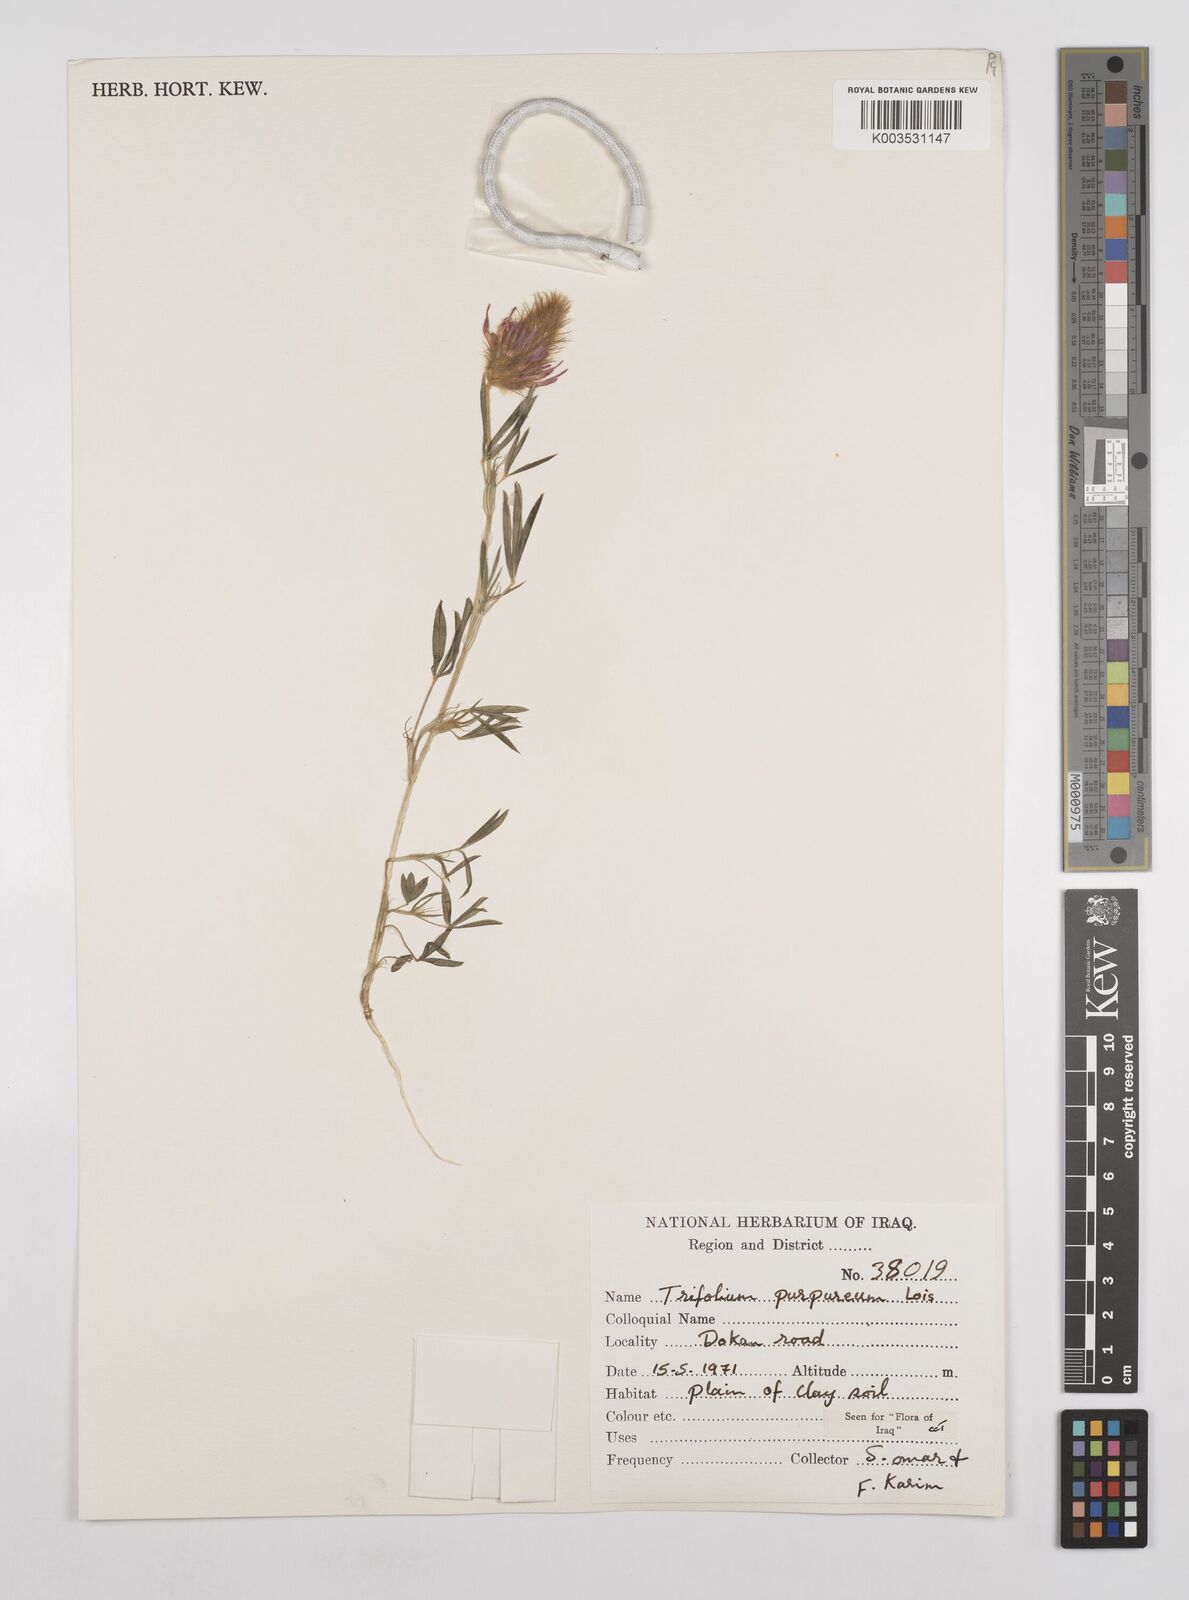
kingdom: Plantae
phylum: Tracheophyta
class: Magnoliopsida
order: Fabales
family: Fabaceae
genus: Trifolium
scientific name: Trifolium purpureum
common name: Purple clover
